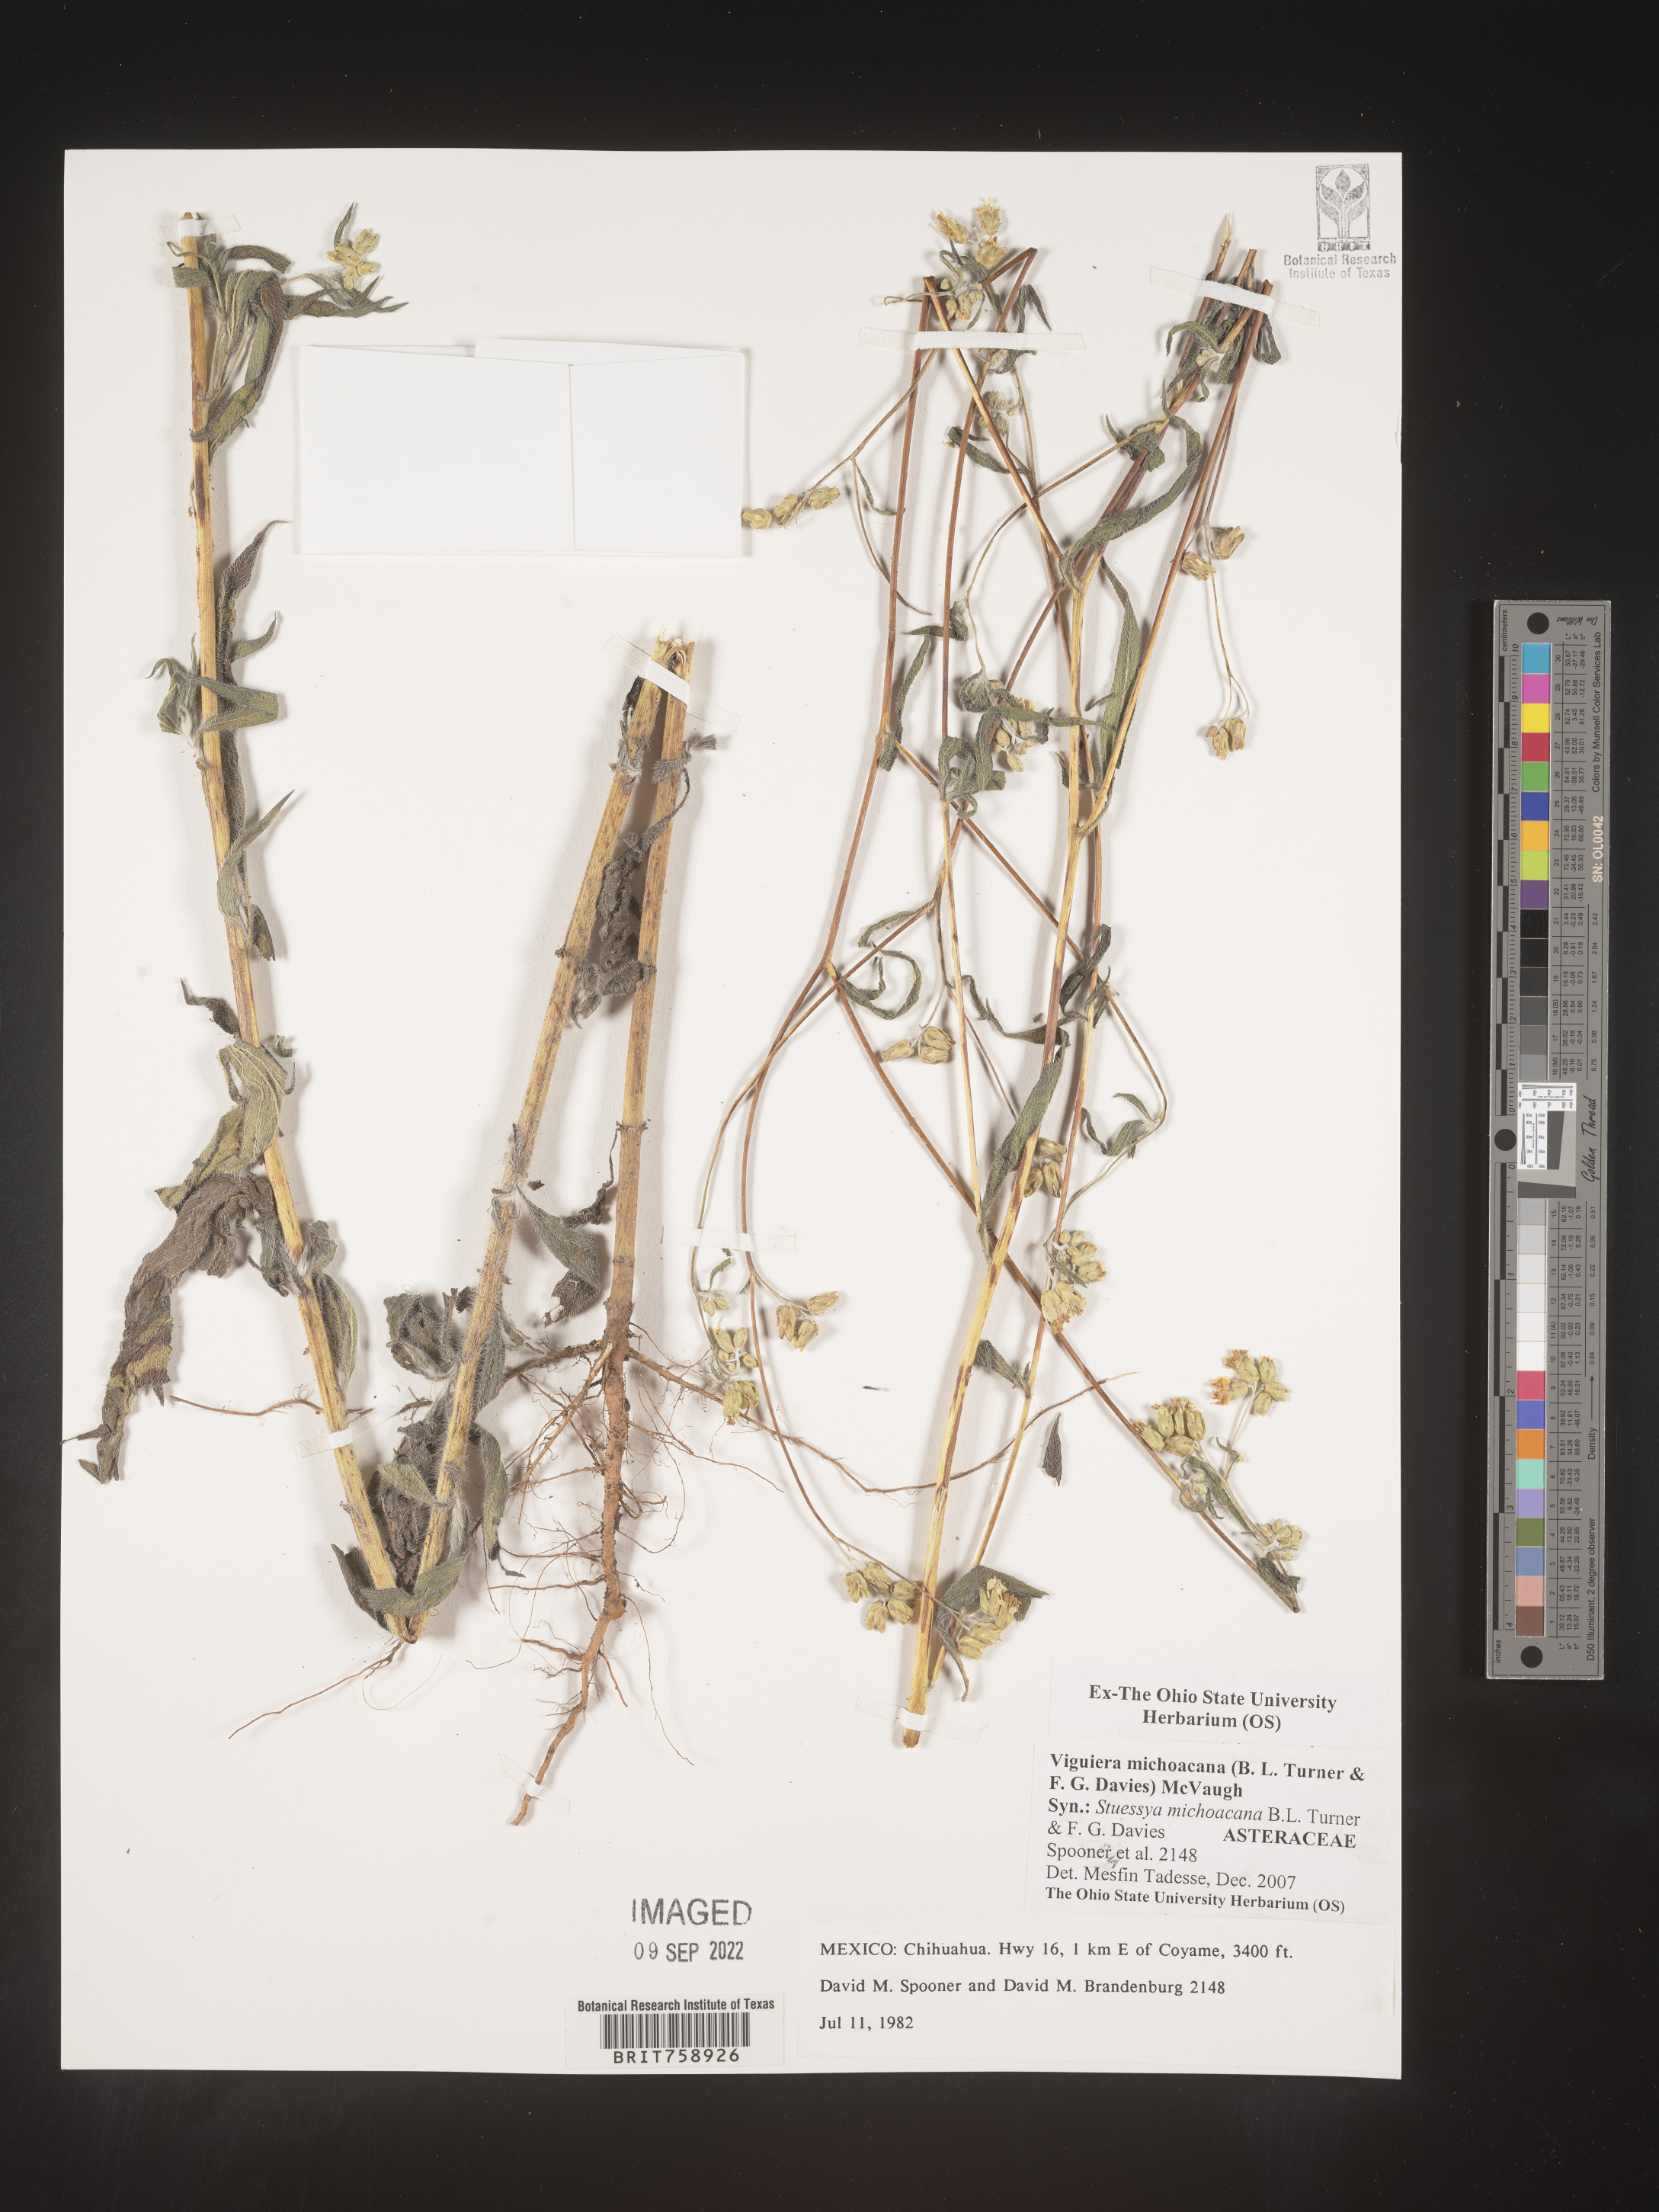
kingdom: Plantae
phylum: Tracheophyta
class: Magnoliopsida
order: Asterales
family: Asteraceae
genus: Viguiera
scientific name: Viguiera
